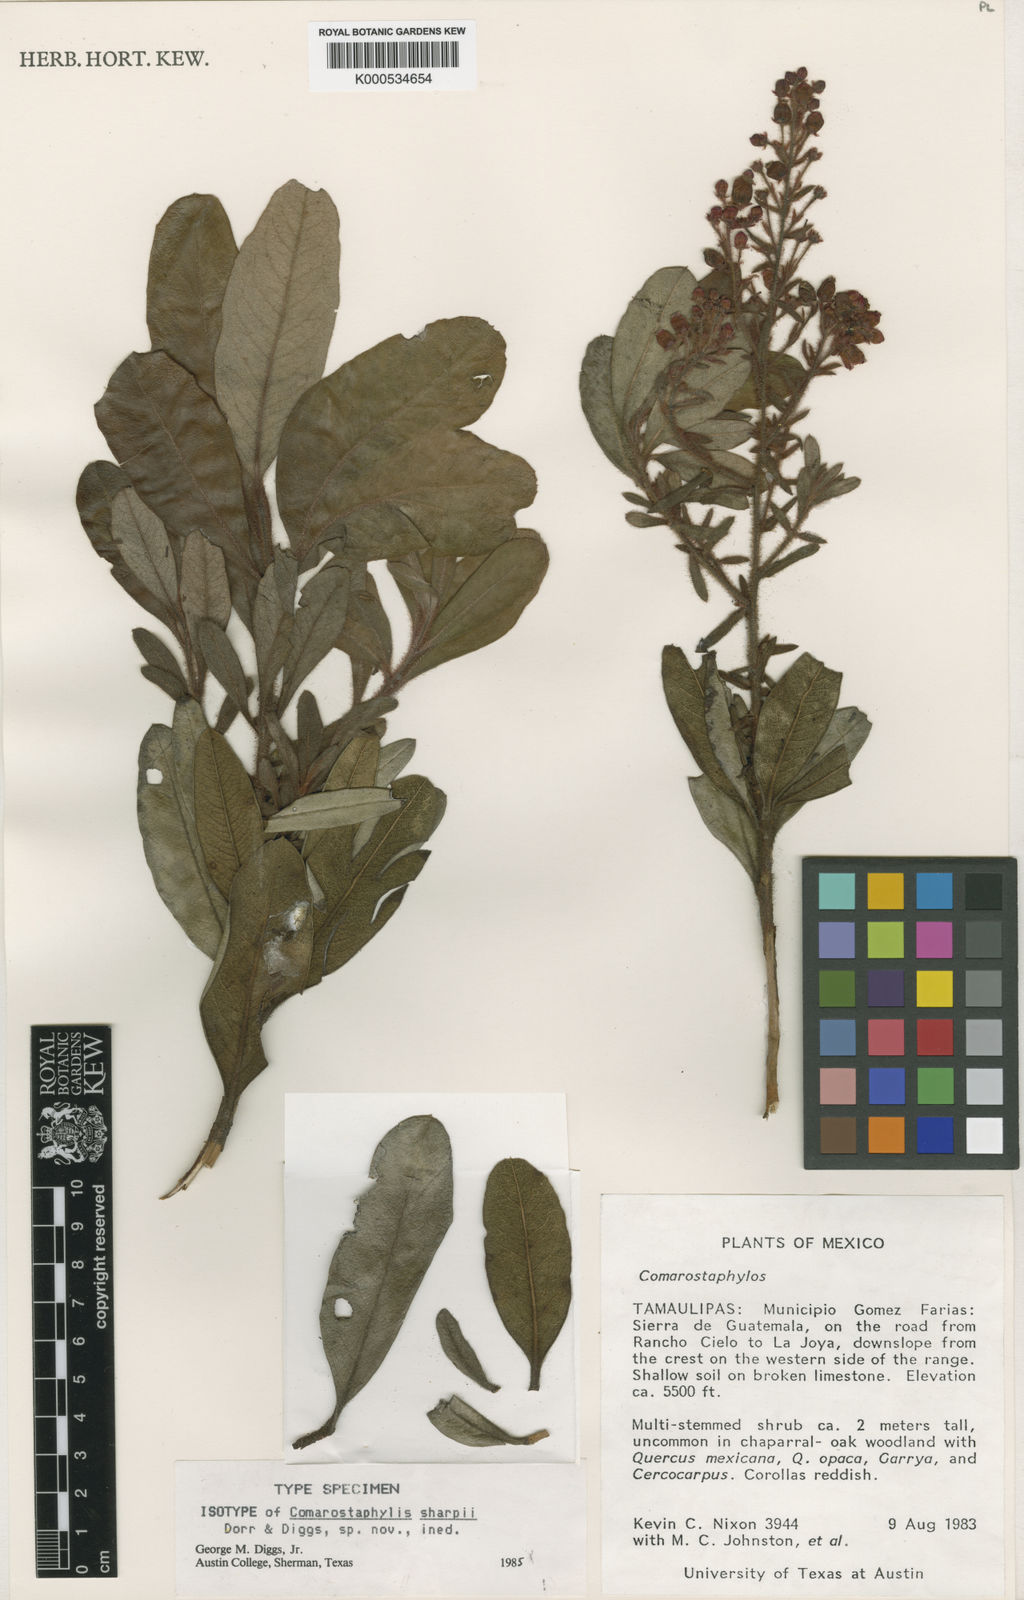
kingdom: Plantae
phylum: Tracheophyta
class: Magnoliopsida
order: Ericales
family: Ericaceae
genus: Comarostaphylis
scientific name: Comarostaphylis sharpii
